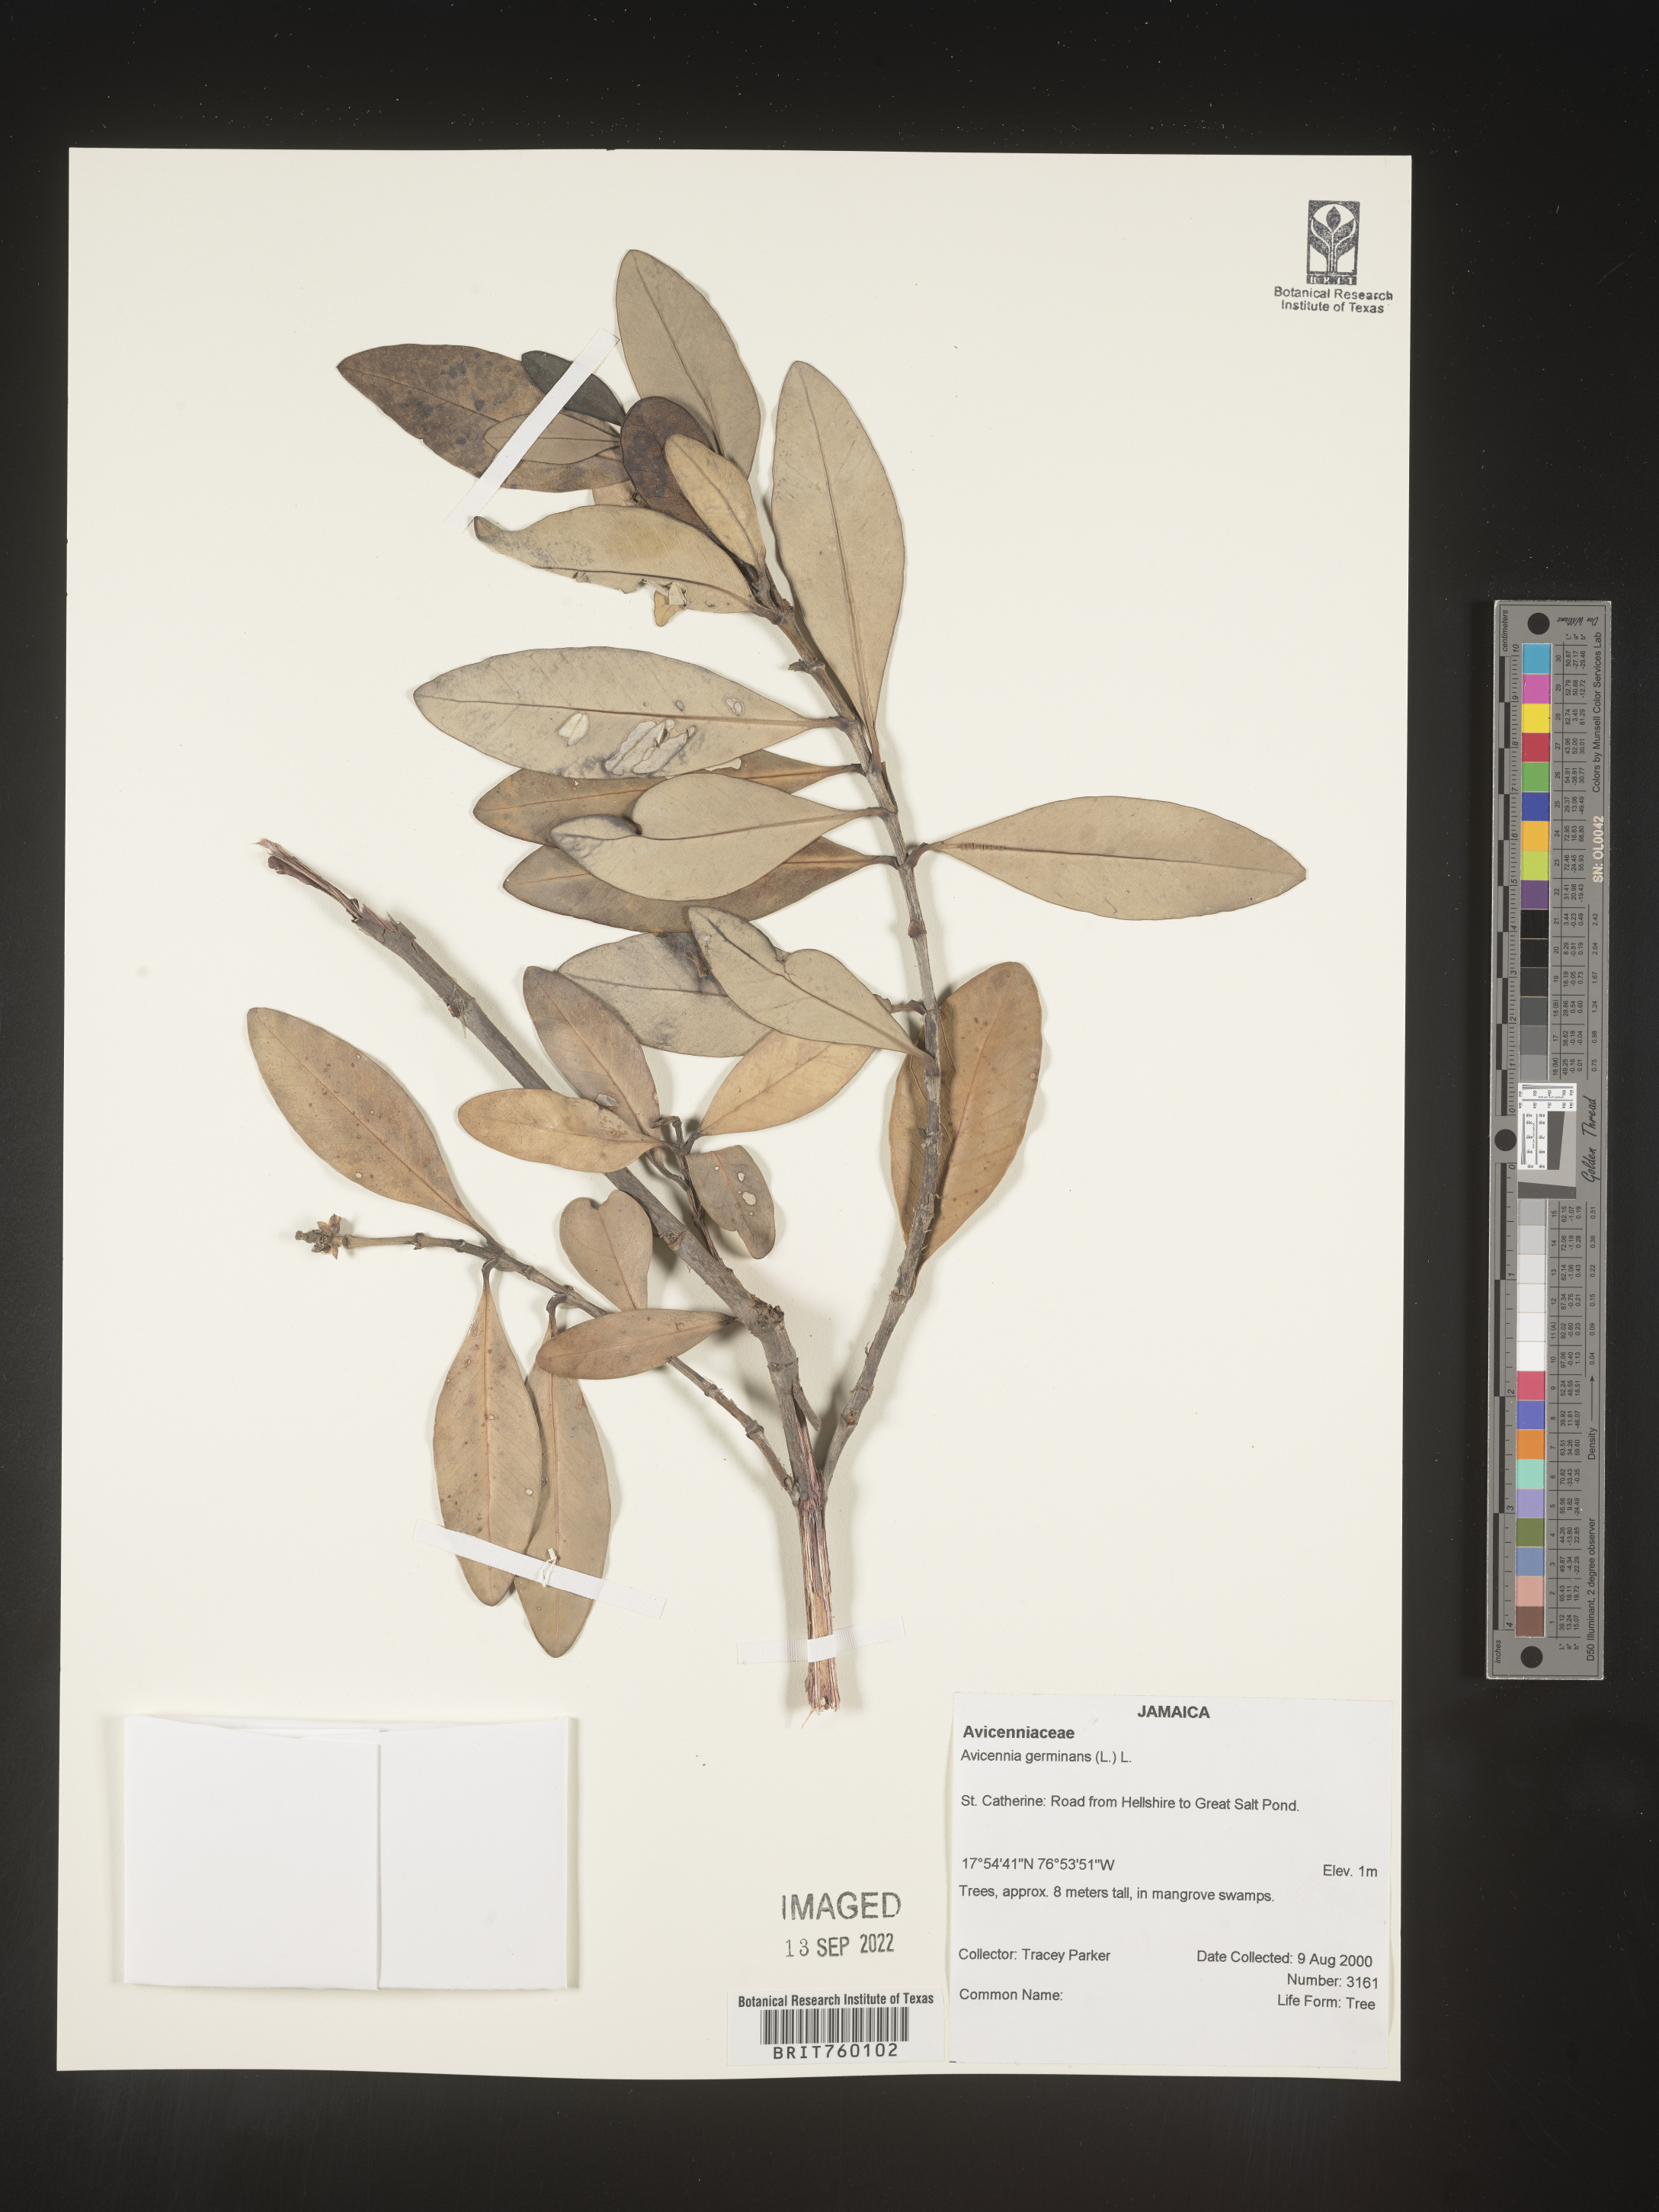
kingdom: Plantae
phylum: Tracheophyta
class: Magnoliopsida
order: Lamiales
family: Acanthaceae
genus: Avicennia
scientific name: Avicennia
